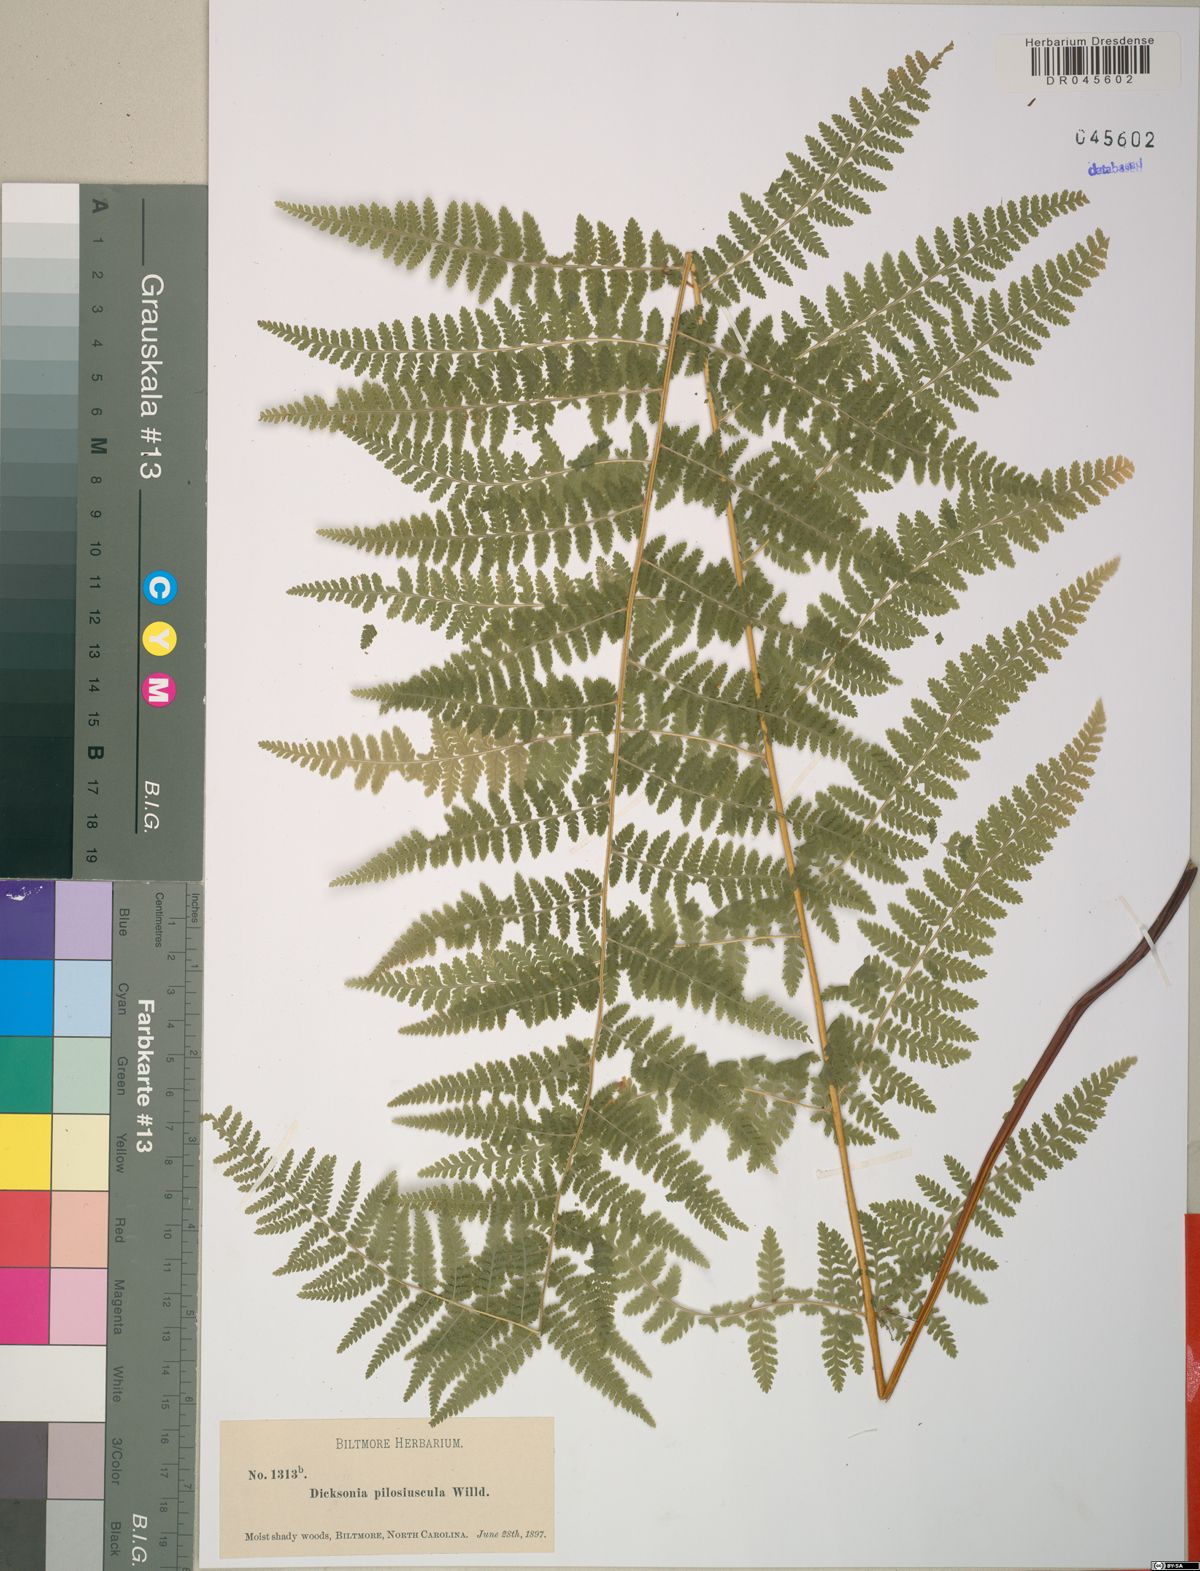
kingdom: Plantae
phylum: Tracheophyta
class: Polypodiopsida
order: Polypodiales
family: Dennstaedtiaceae
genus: Sitobolium
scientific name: Sitobolium punctilobum
